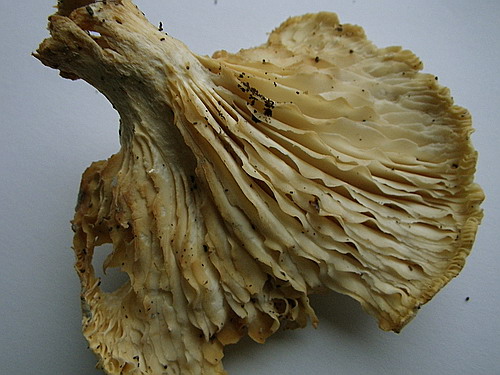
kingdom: Fungi
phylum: Basidiomycota
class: Agaricomycetes
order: Agaricales
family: Pleurotaceae
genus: Pleurotus
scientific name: Pleurotus dryinus
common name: korkagtig østershat
